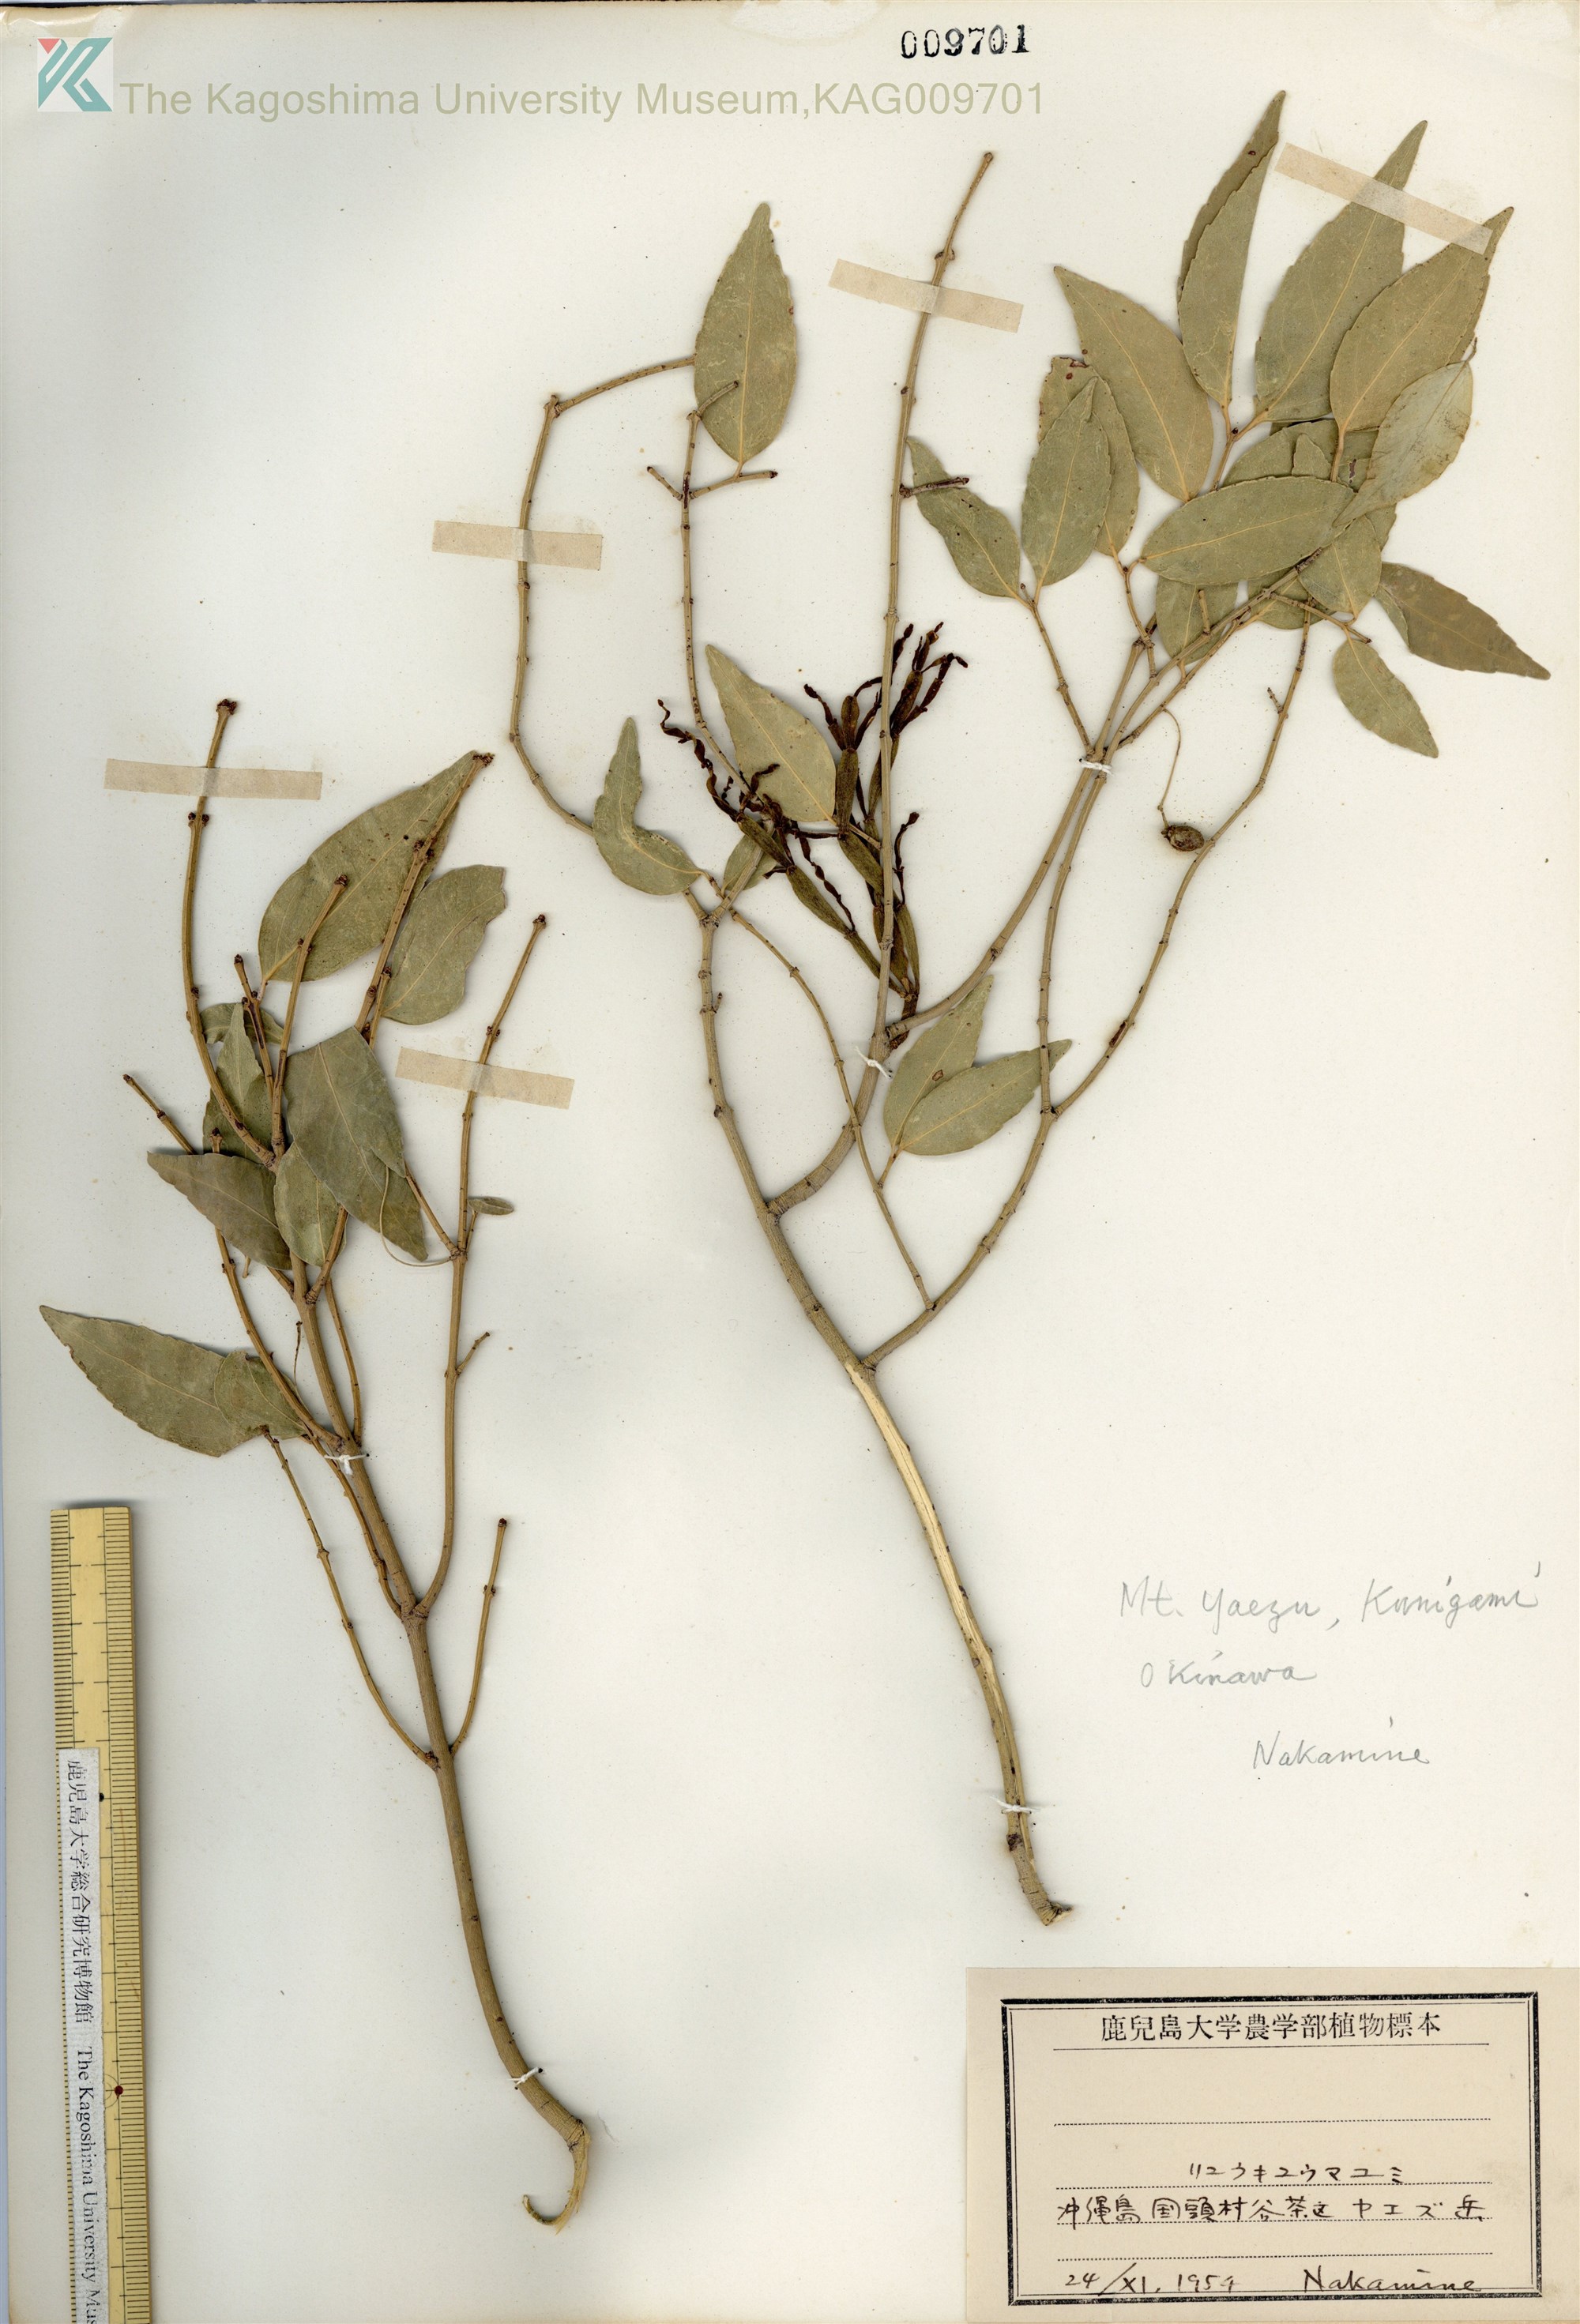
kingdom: Plantae
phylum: Tracheophyta
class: Magnoliopsida
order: Celastrales
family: Celastraceae
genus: Euonymus
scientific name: Euonymus lutchuensis
